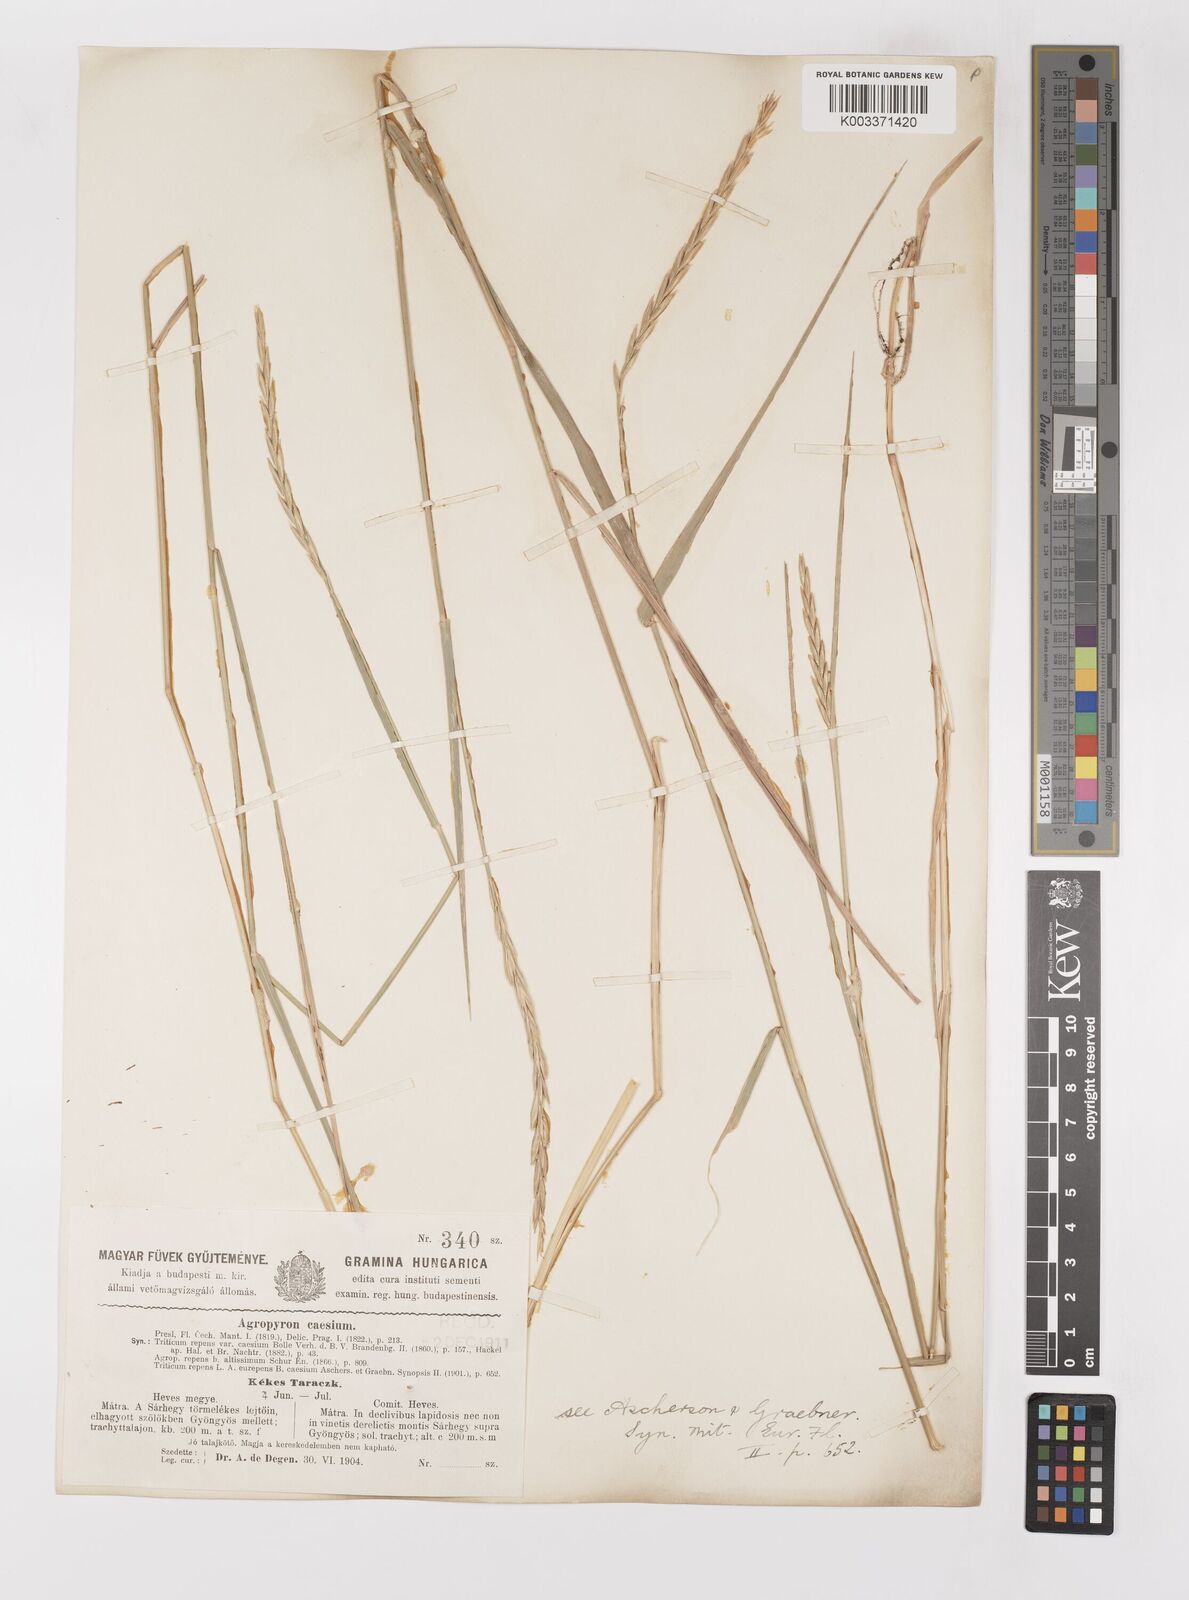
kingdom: Plantae
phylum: Tracheophyta
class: Liliopsida
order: Poales
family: Poaceae
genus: Elymus
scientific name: Elymus repens
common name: Quackgrass
